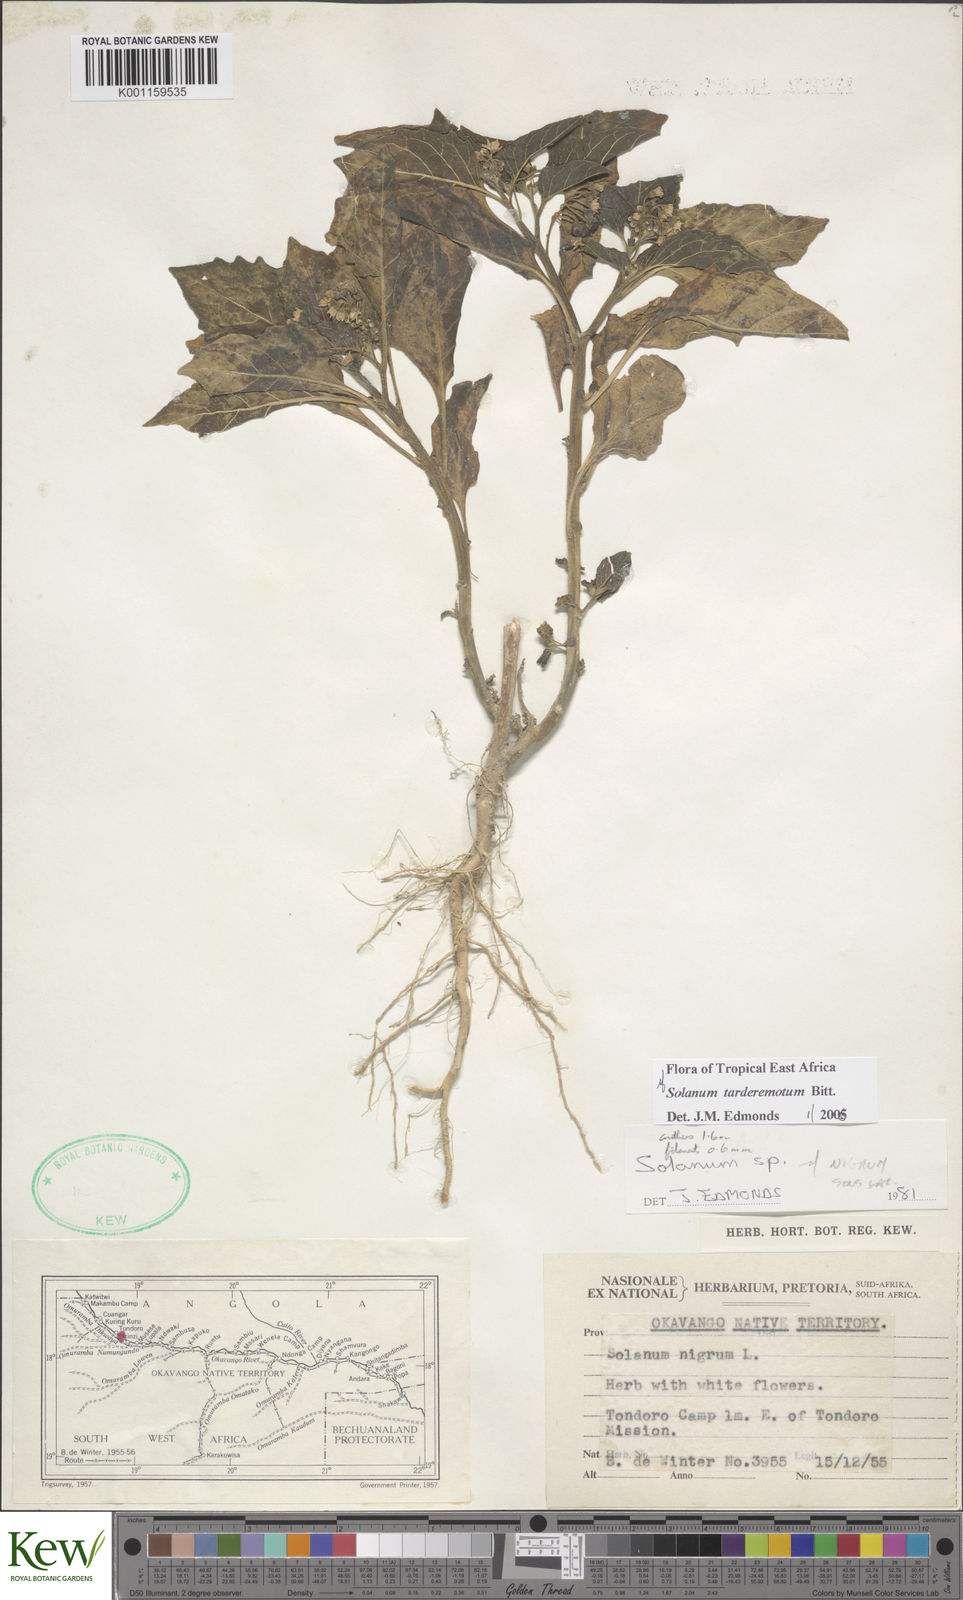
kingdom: Plantae
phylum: Tracheophyta
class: Magnoliopsida
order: Solanales
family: Solanaceae
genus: Solanum
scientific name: Solanum tarderemotum
